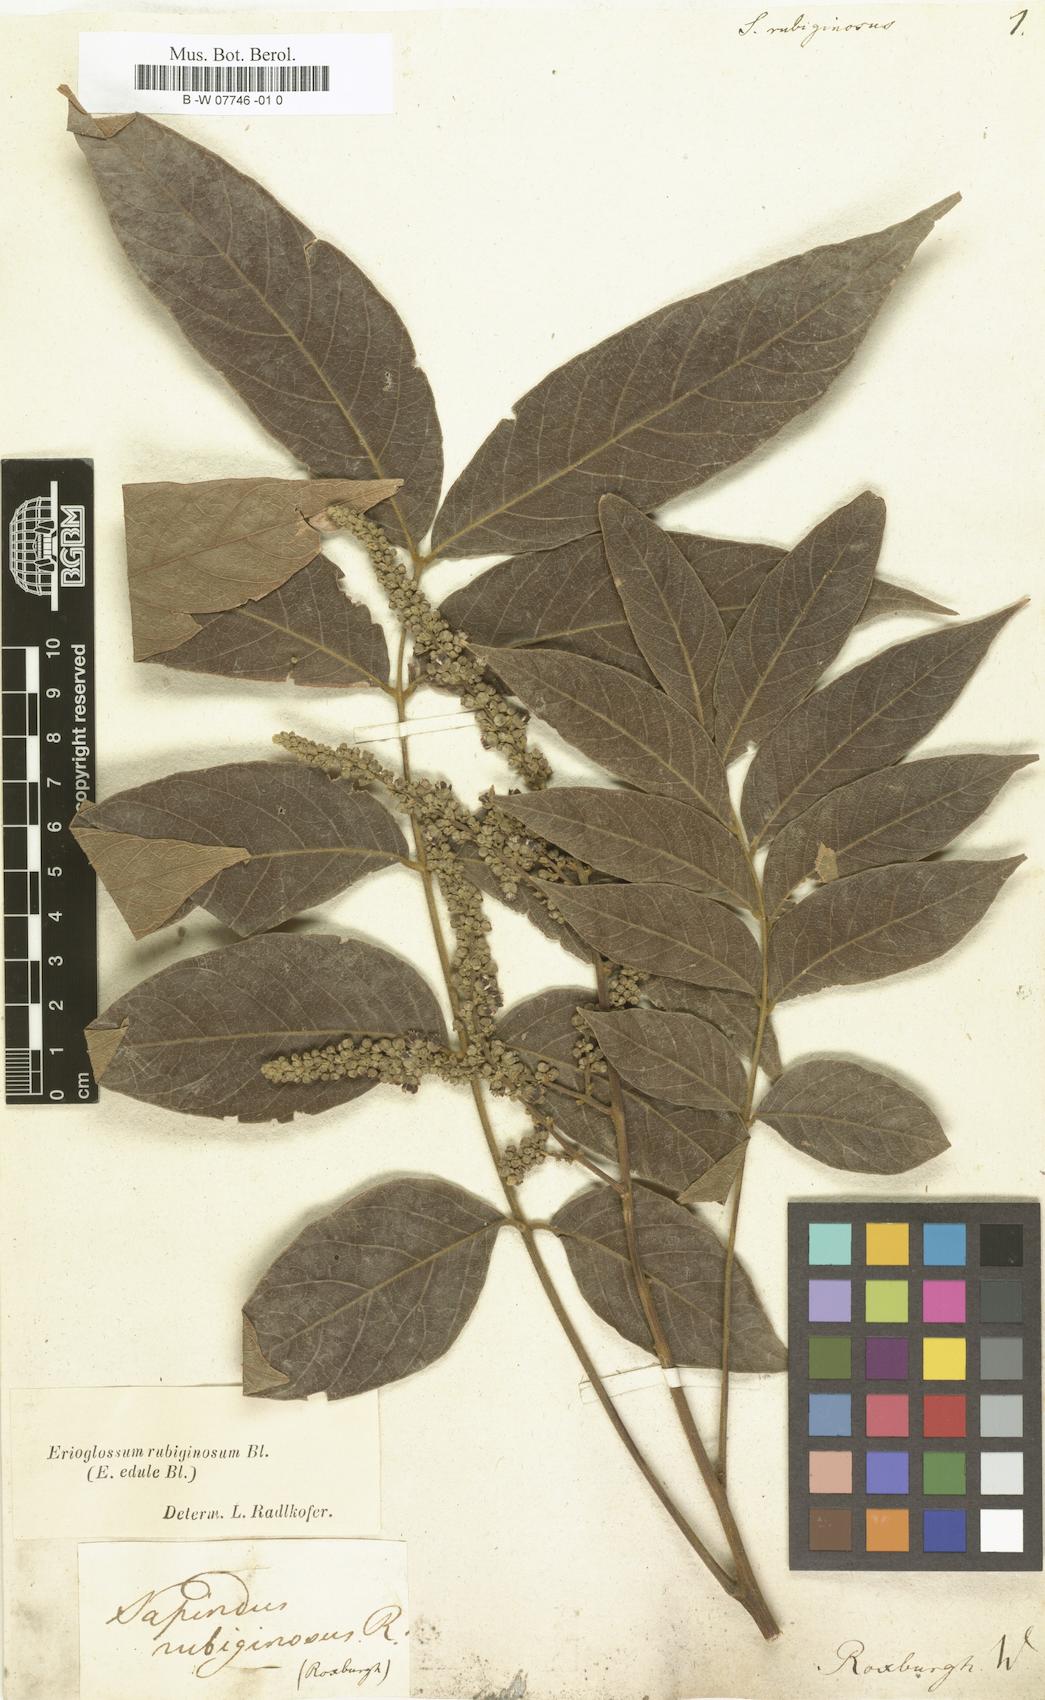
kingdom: Plantae
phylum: Tracheophyta
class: Magnoliopsida
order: Sapindales
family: Sapindaceae
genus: Lepisanthes
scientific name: Lepisanthes rubiginosa
